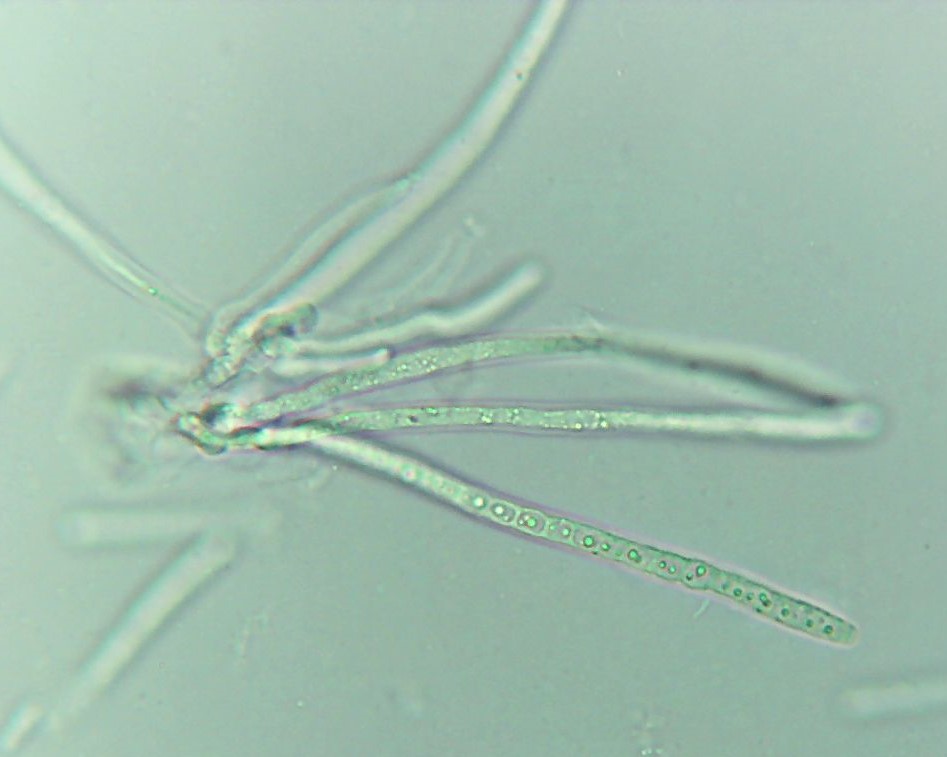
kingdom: Fungi
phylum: Ascomycota
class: Sordariomycetes
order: Hypocreales
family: Hypocreaceae
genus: Trichoderma
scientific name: Trichoderma europaeum
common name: rosabrun kødkerne
